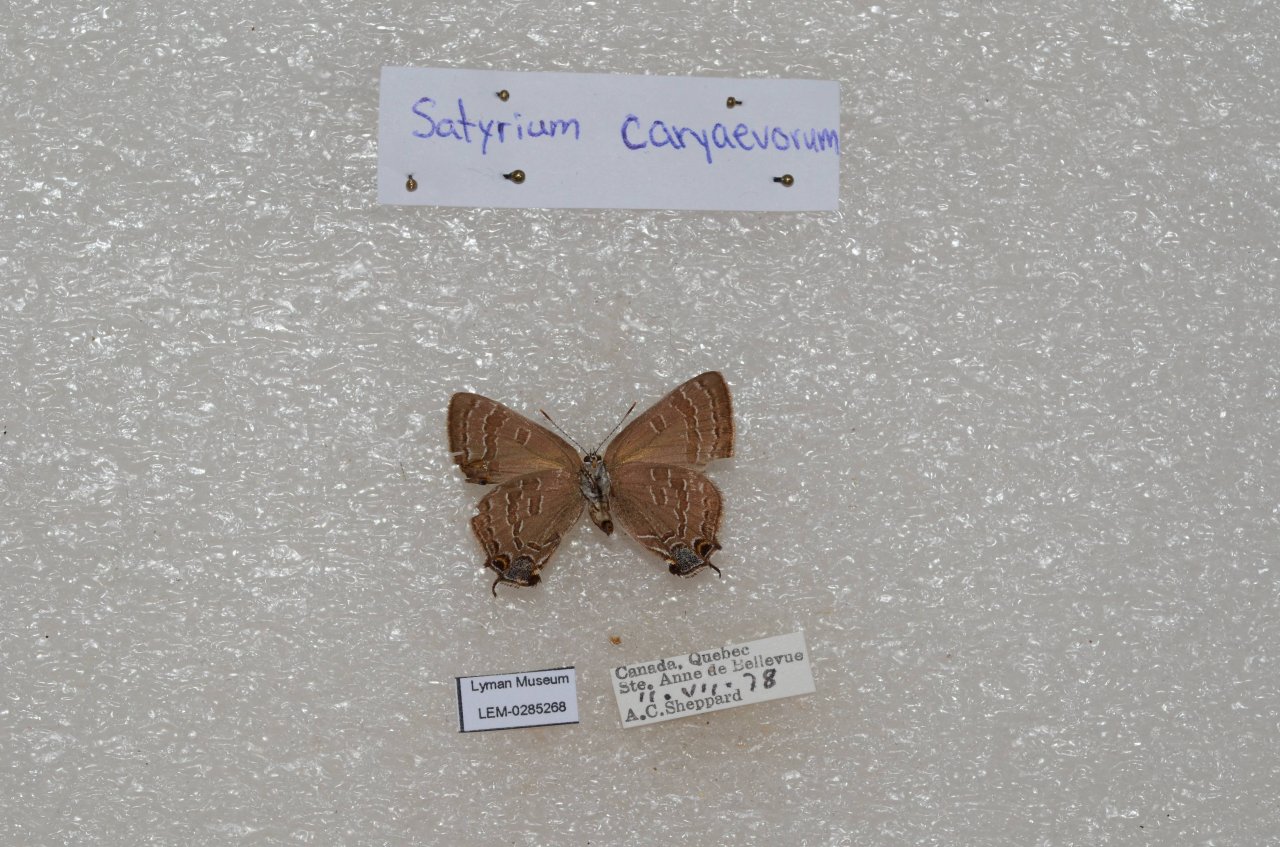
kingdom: Animalia
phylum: Arthropoda
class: Insecta
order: Lepidoptera
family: Lycaenidae
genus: Strymon
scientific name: Strymon caryaevorus
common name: Hickory Hairstreak
